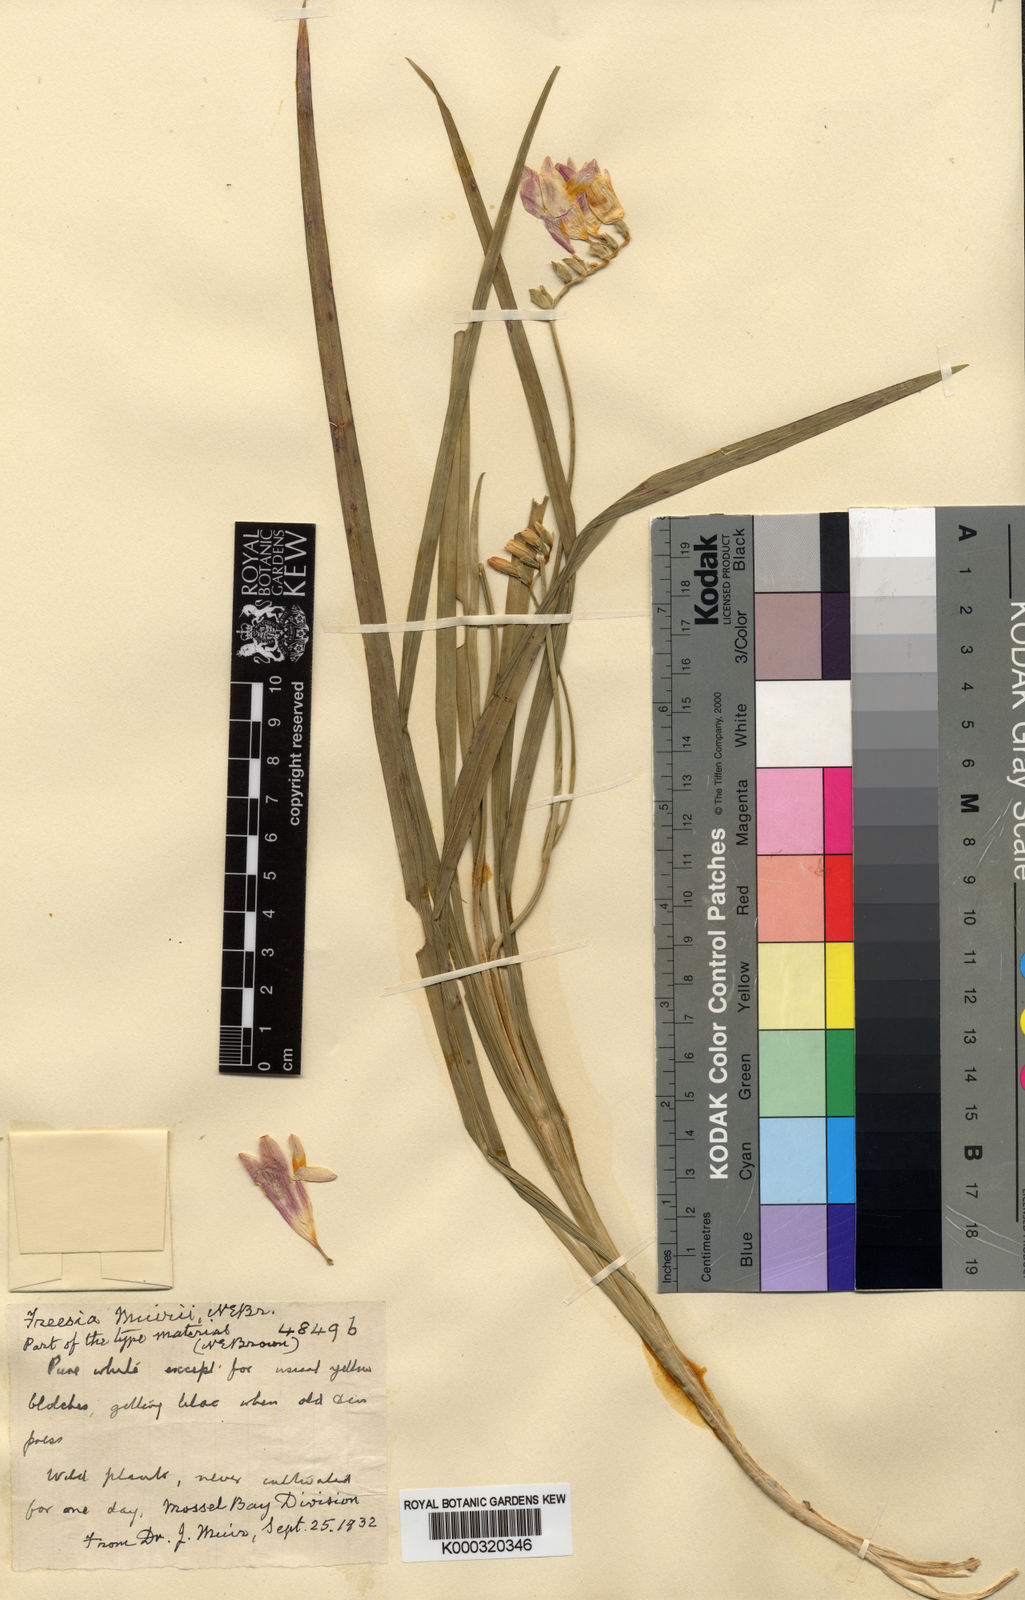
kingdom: Plantae
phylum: Tracheophyta
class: Liliopsida
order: Asparagales
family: Iridaceae
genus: Freesia
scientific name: Freesia leichtlinii
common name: Freesia
